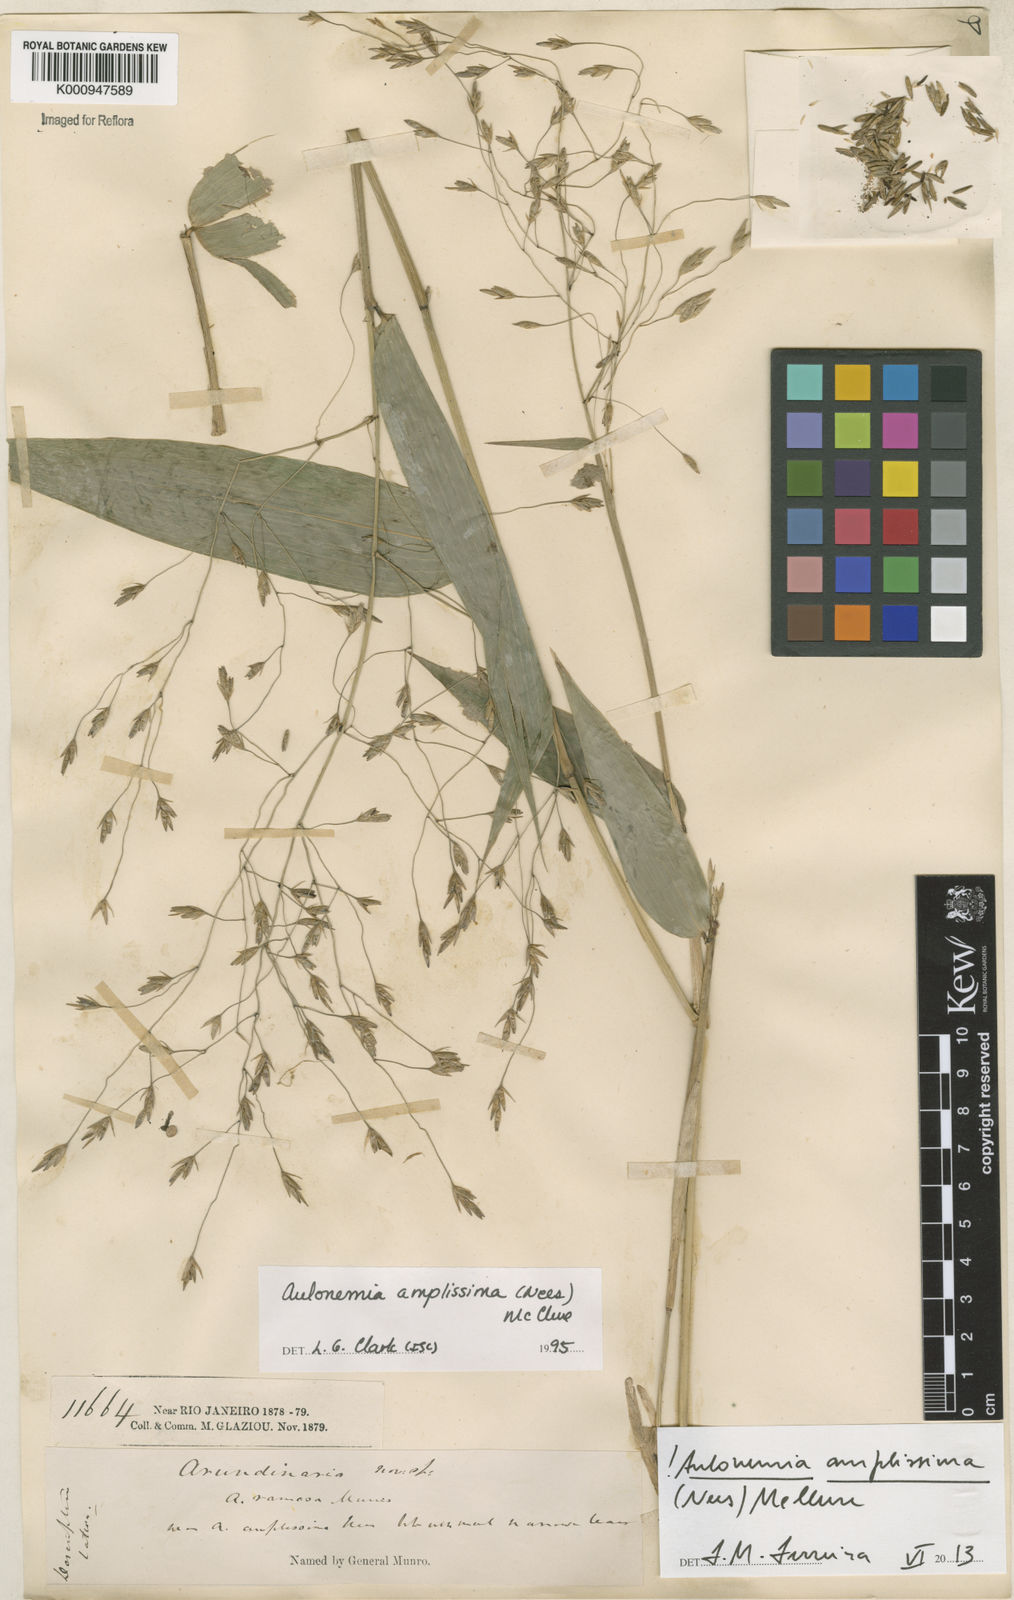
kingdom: Plantae
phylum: Tracheophyta
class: Liliopsida
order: Poales
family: Poaceae
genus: Aulonemia
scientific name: Aulonemia amplissima
